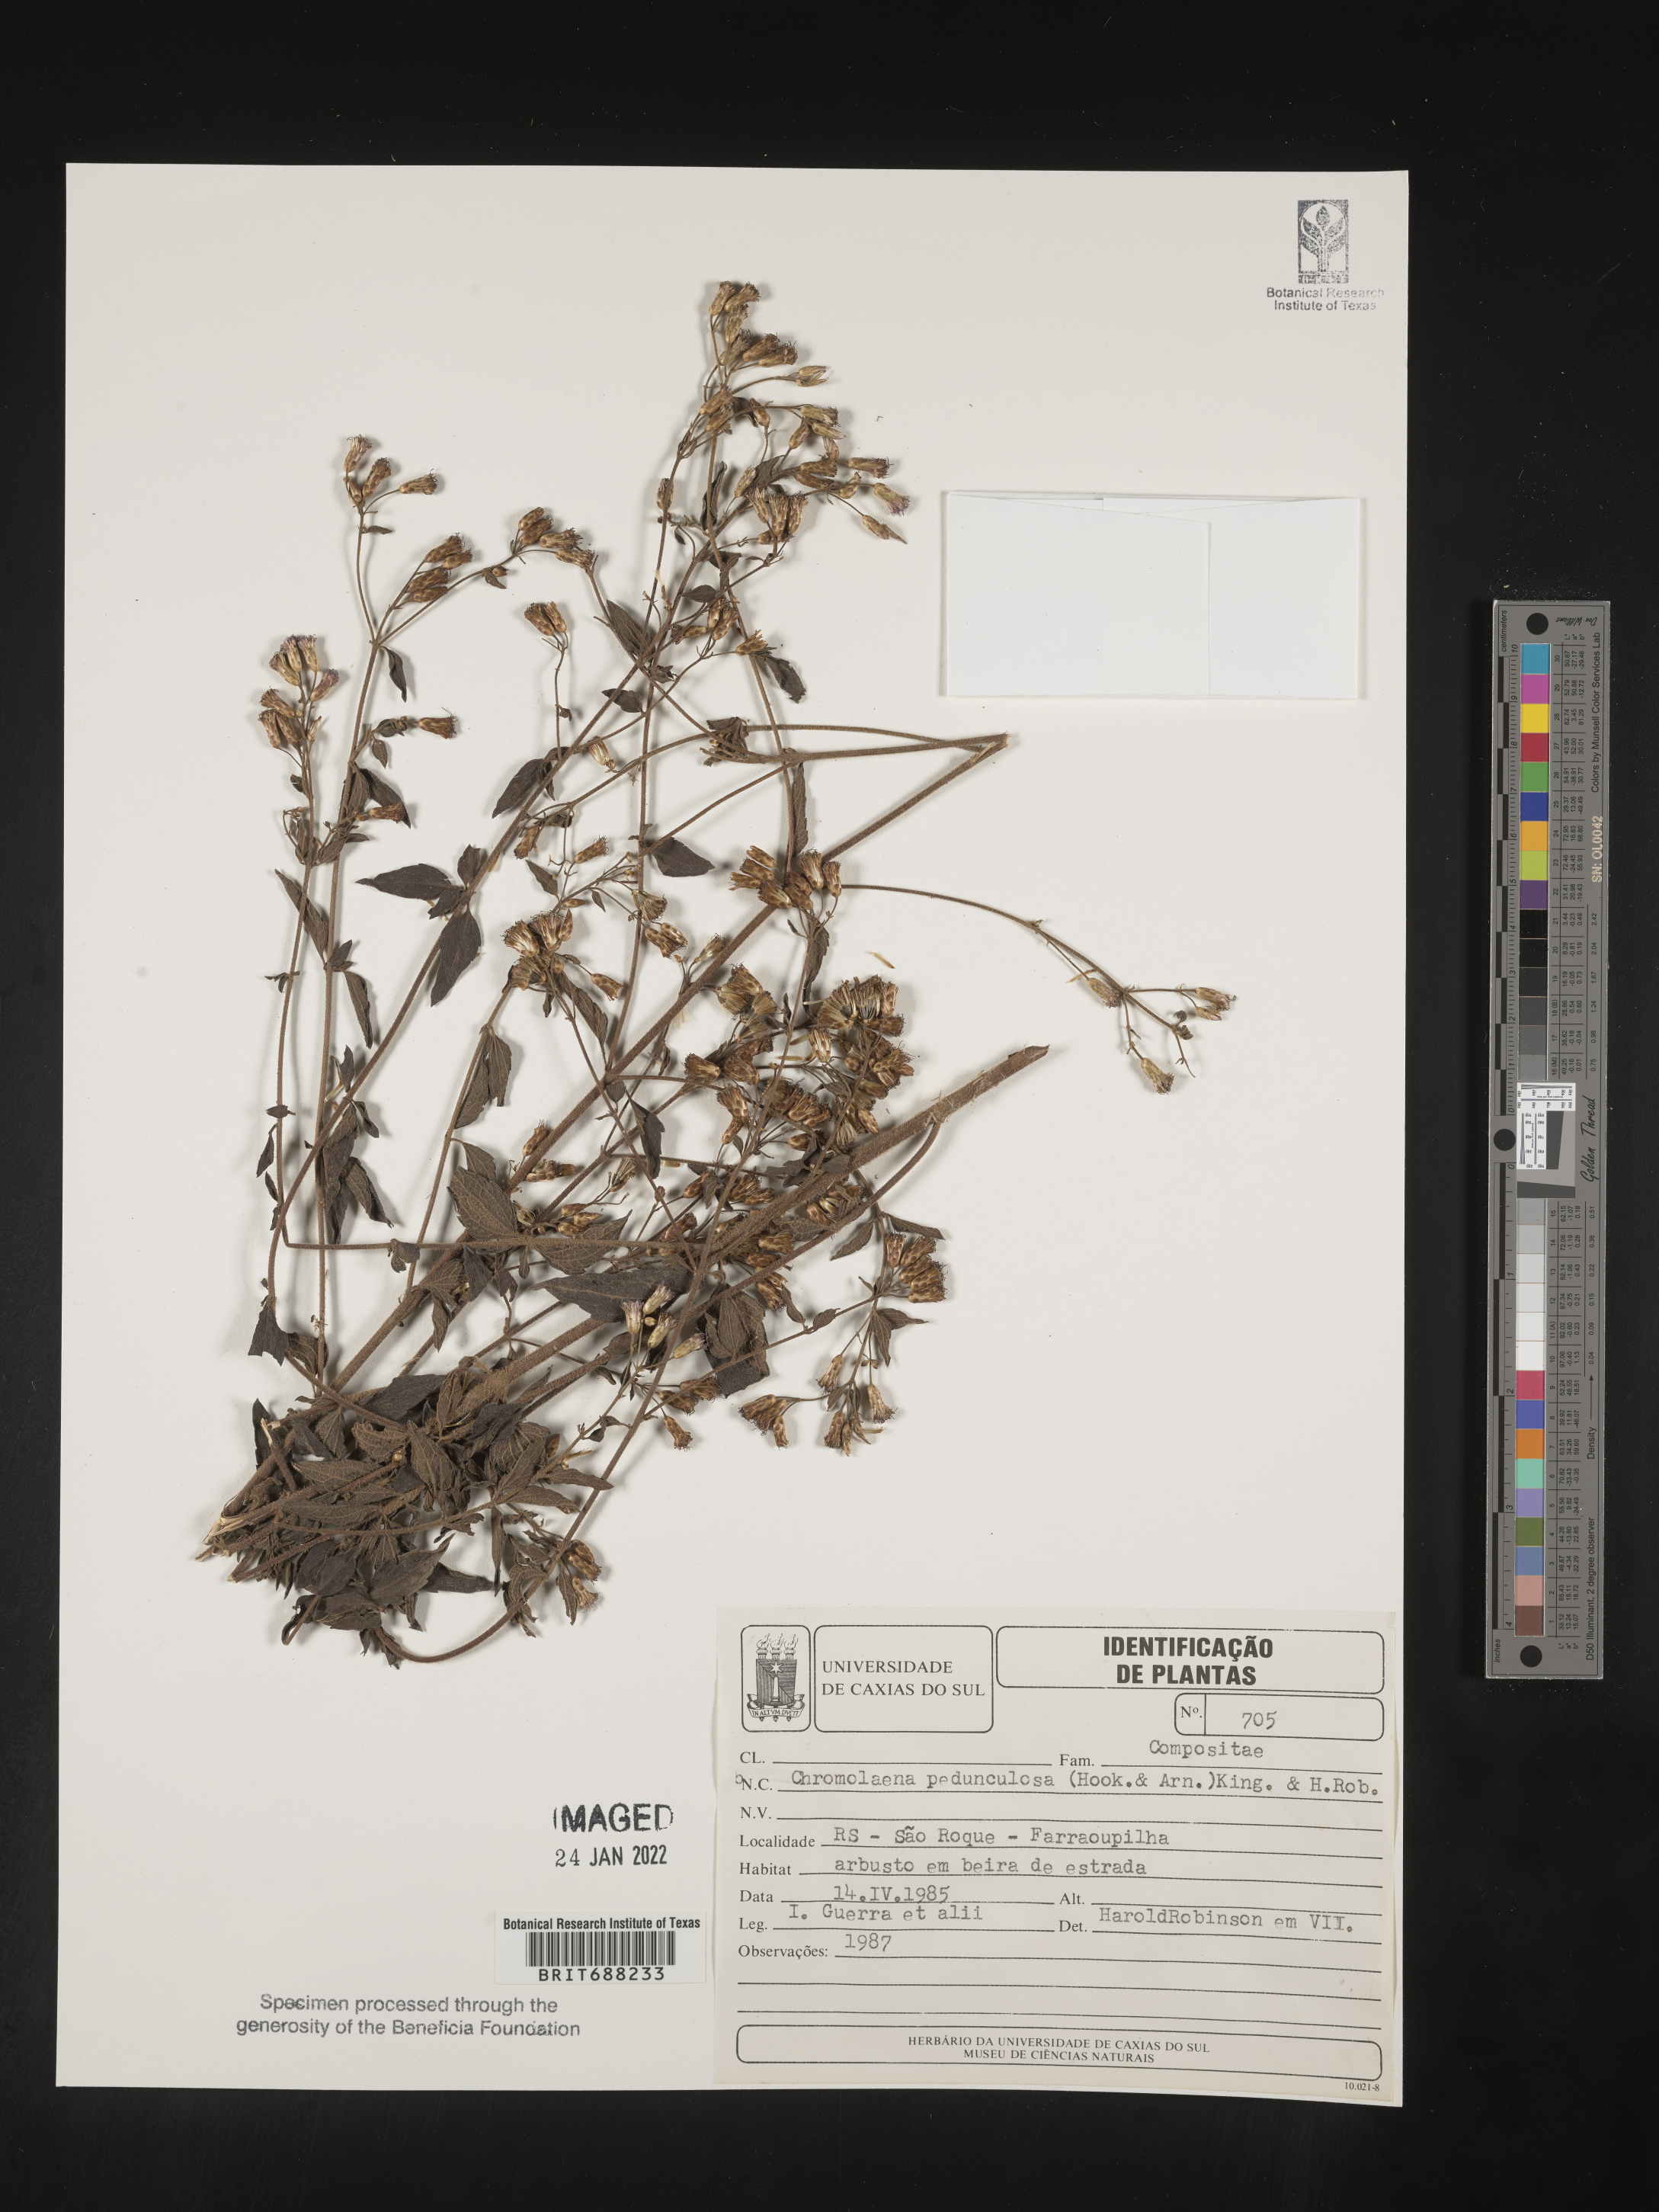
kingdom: Plantae
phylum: Tracheophyta
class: Magnoliopsida
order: Asterales
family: Asteraceae
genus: Chromolaena
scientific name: Chromolaena
